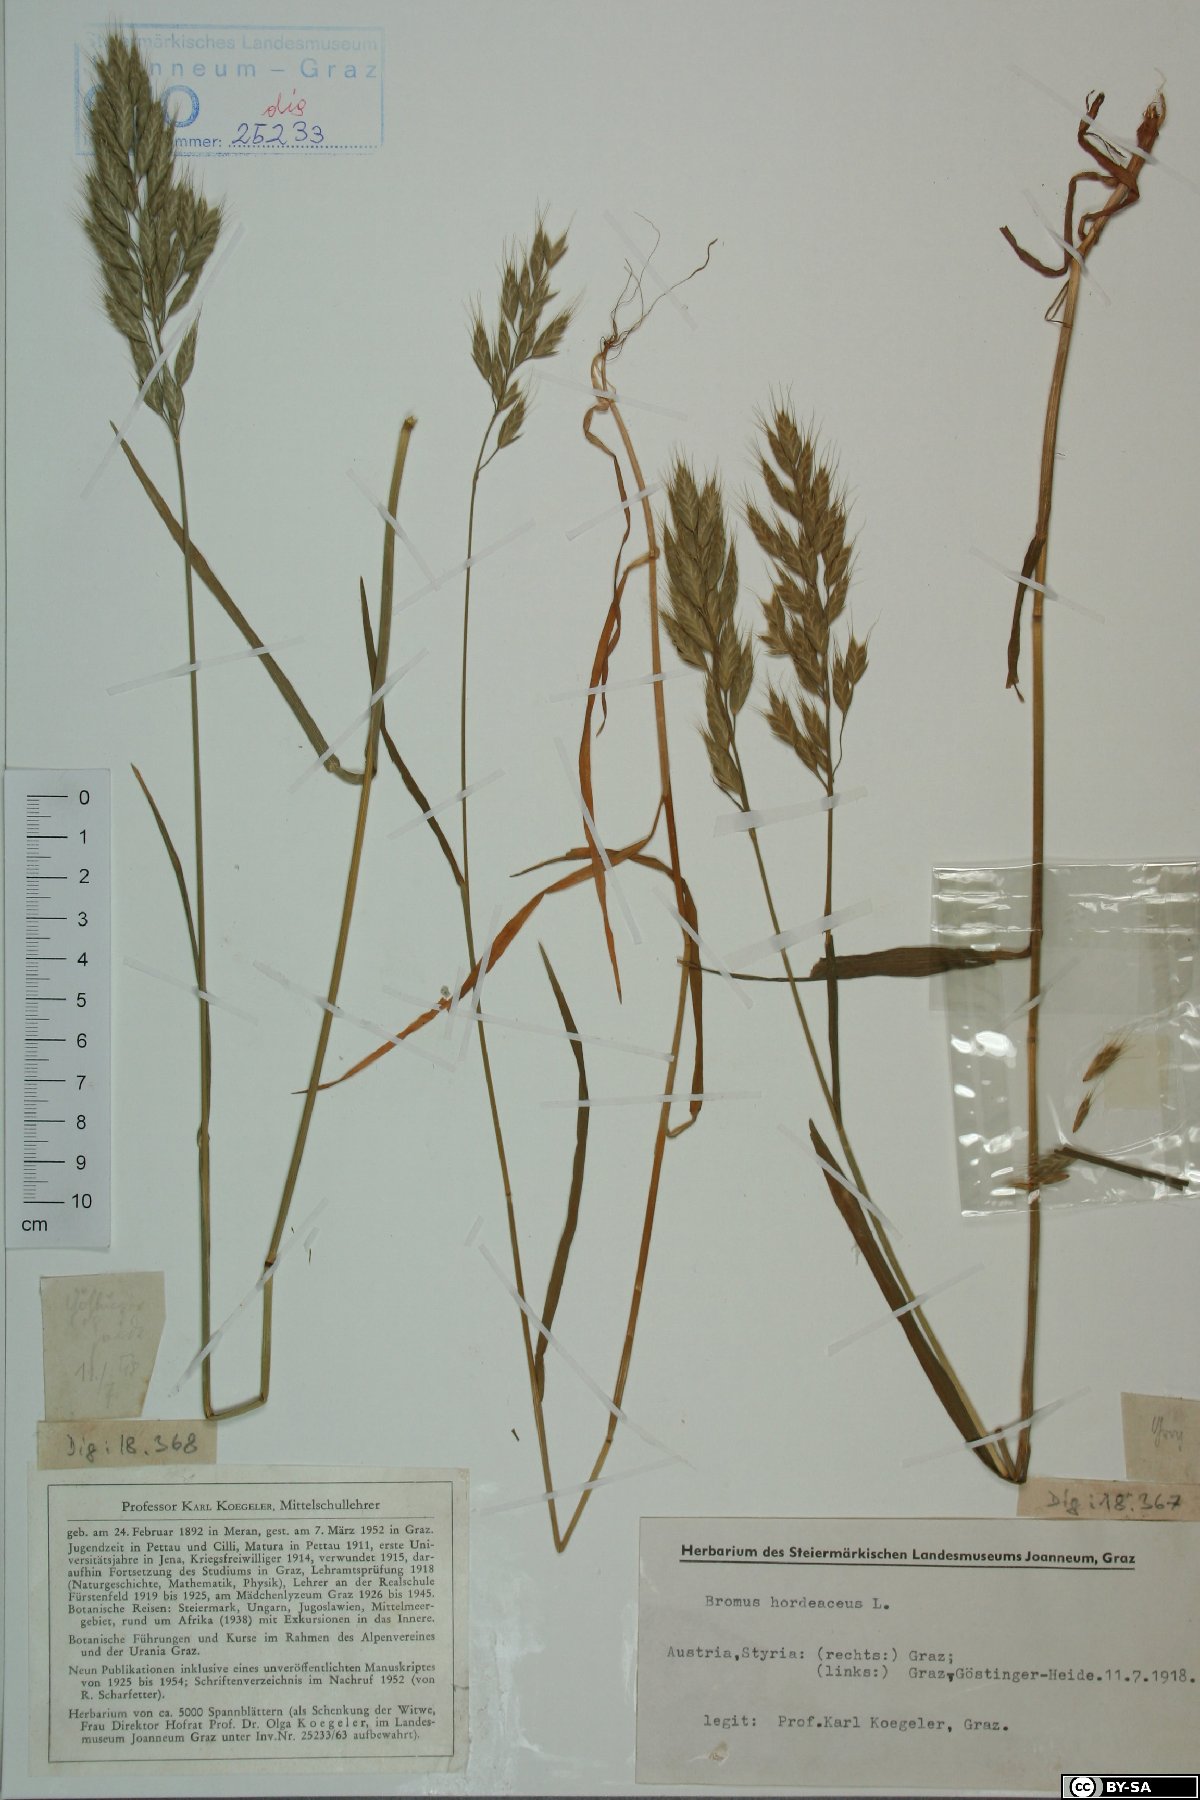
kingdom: Plantae
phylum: Tracheophyta
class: Liliopsida
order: Poales
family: Poaceae
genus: Bromus
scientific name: Bromus hordeaceus
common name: Soft brome
